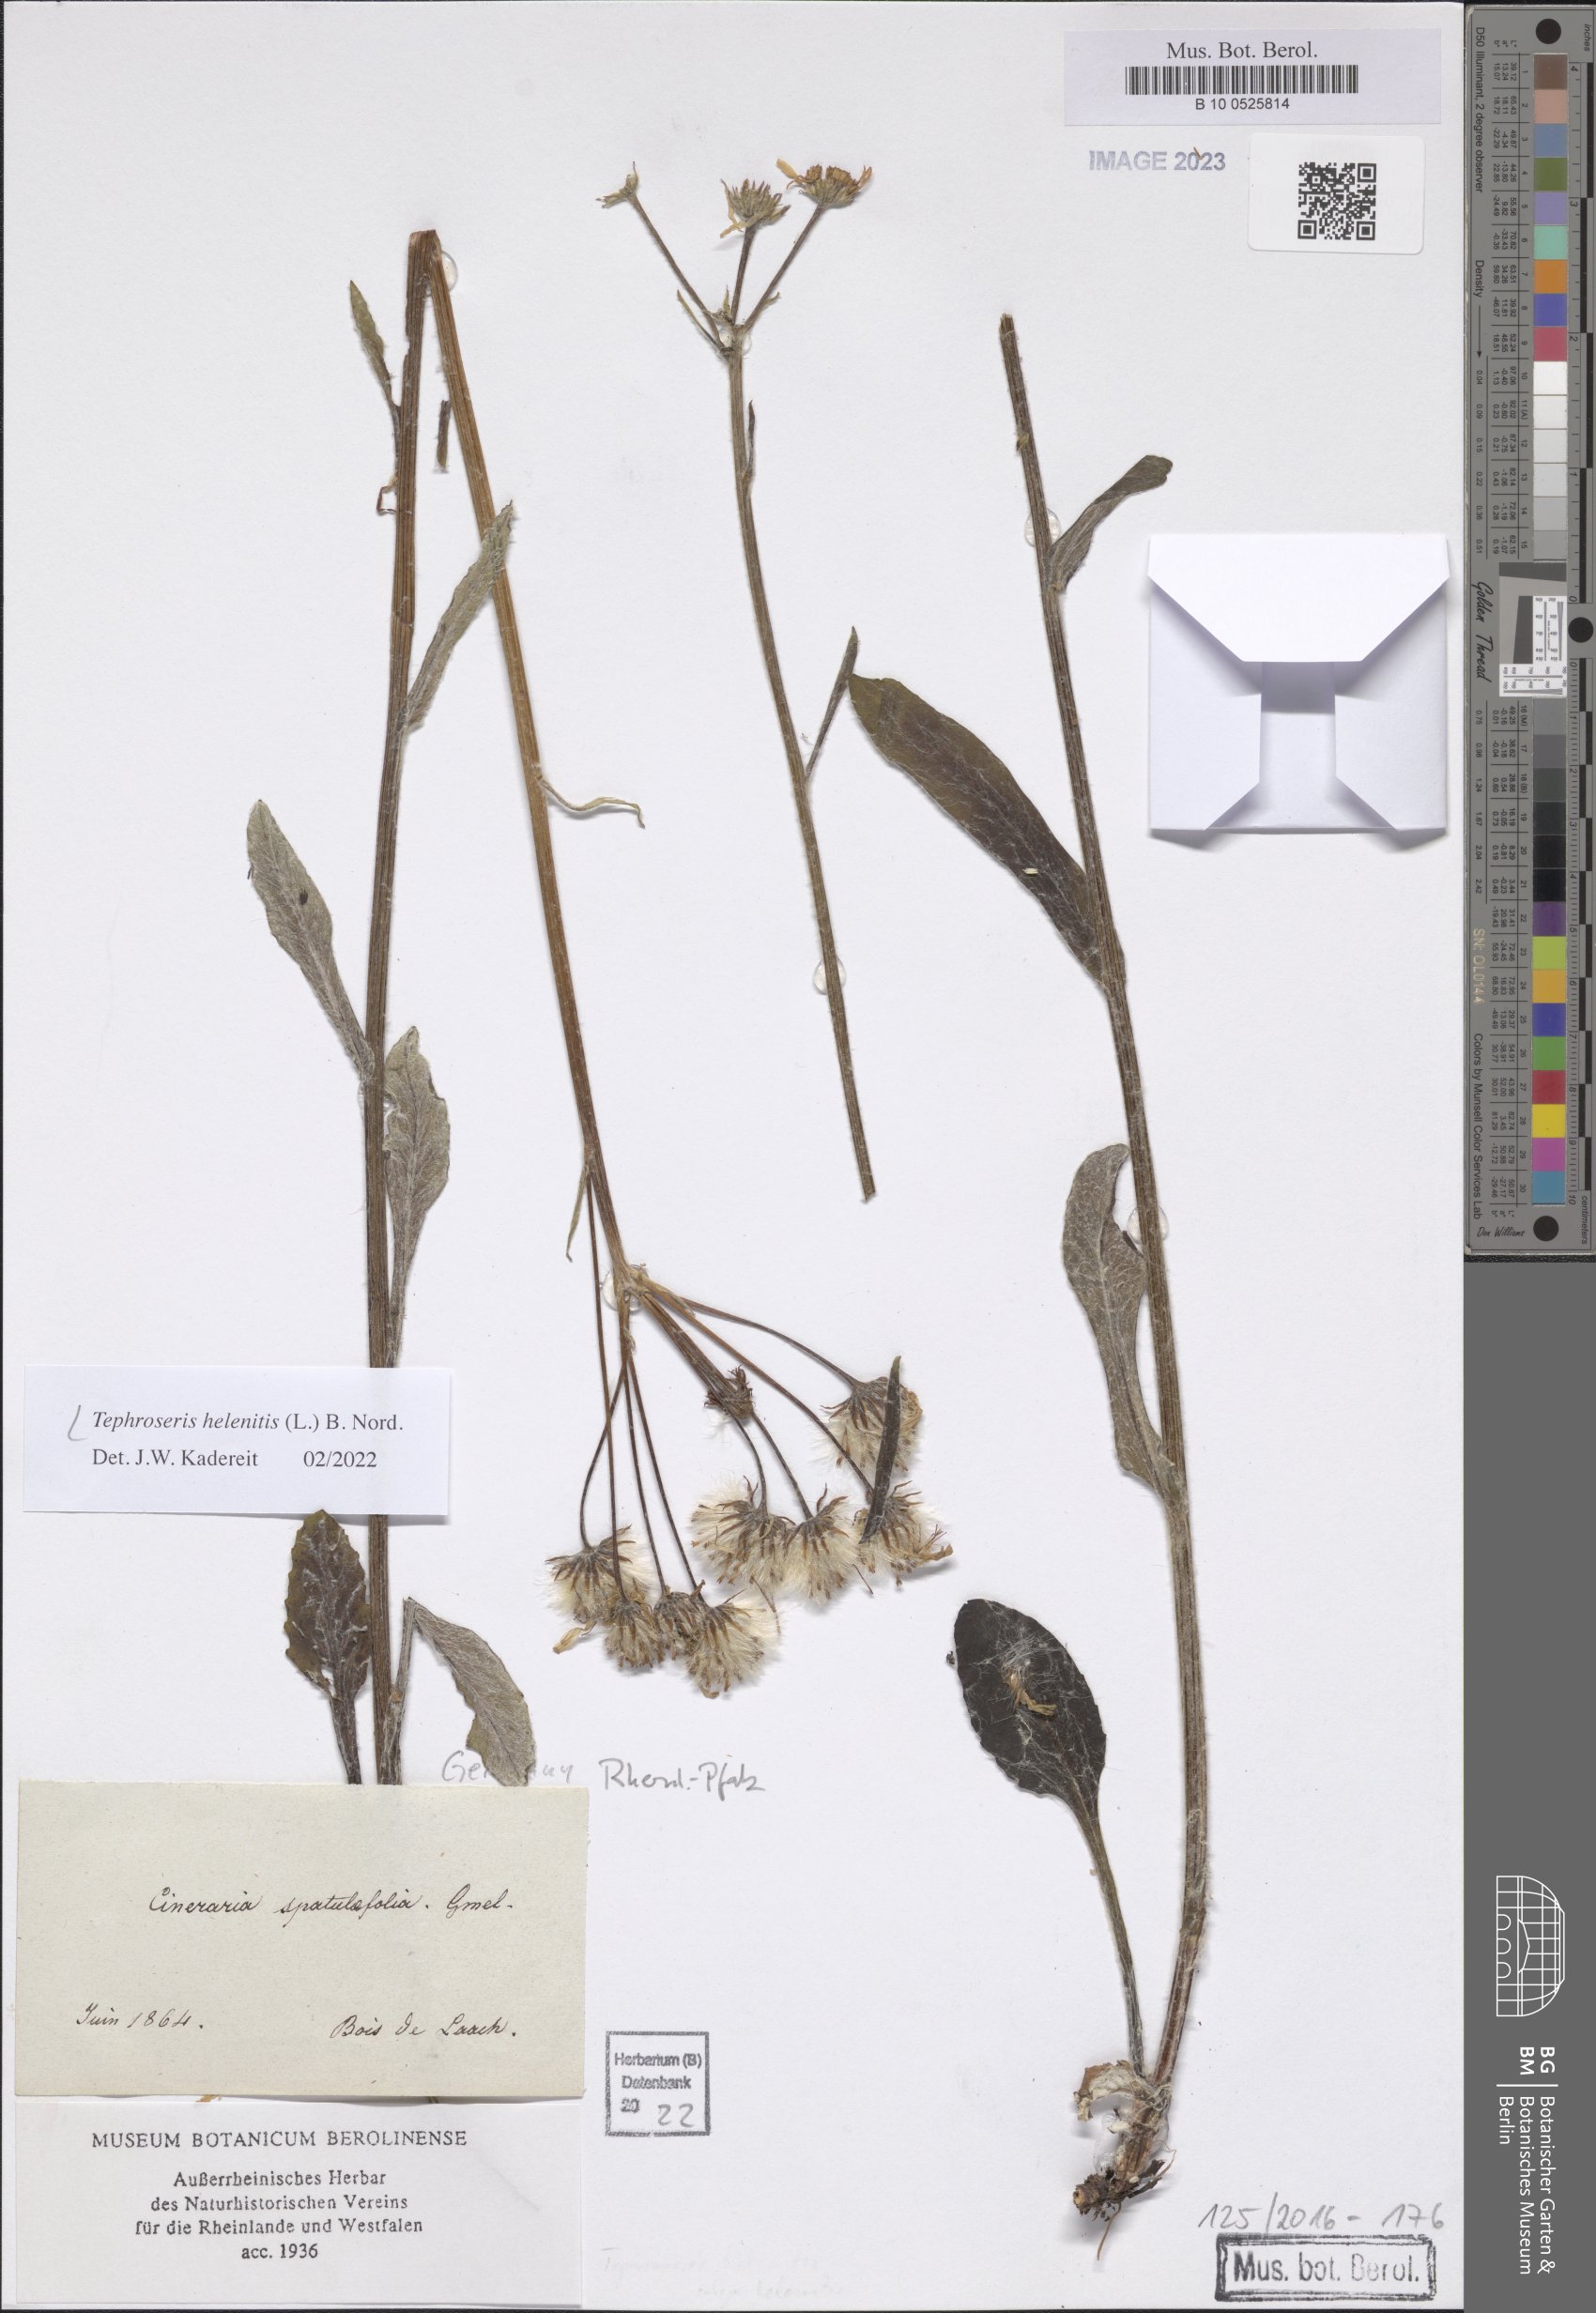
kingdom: Plantae
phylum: Tracheophyta
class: Magnoliopsida
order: Asterales
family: Asteraceae
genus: Tephroseris
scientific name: Tephroseris helenitis
